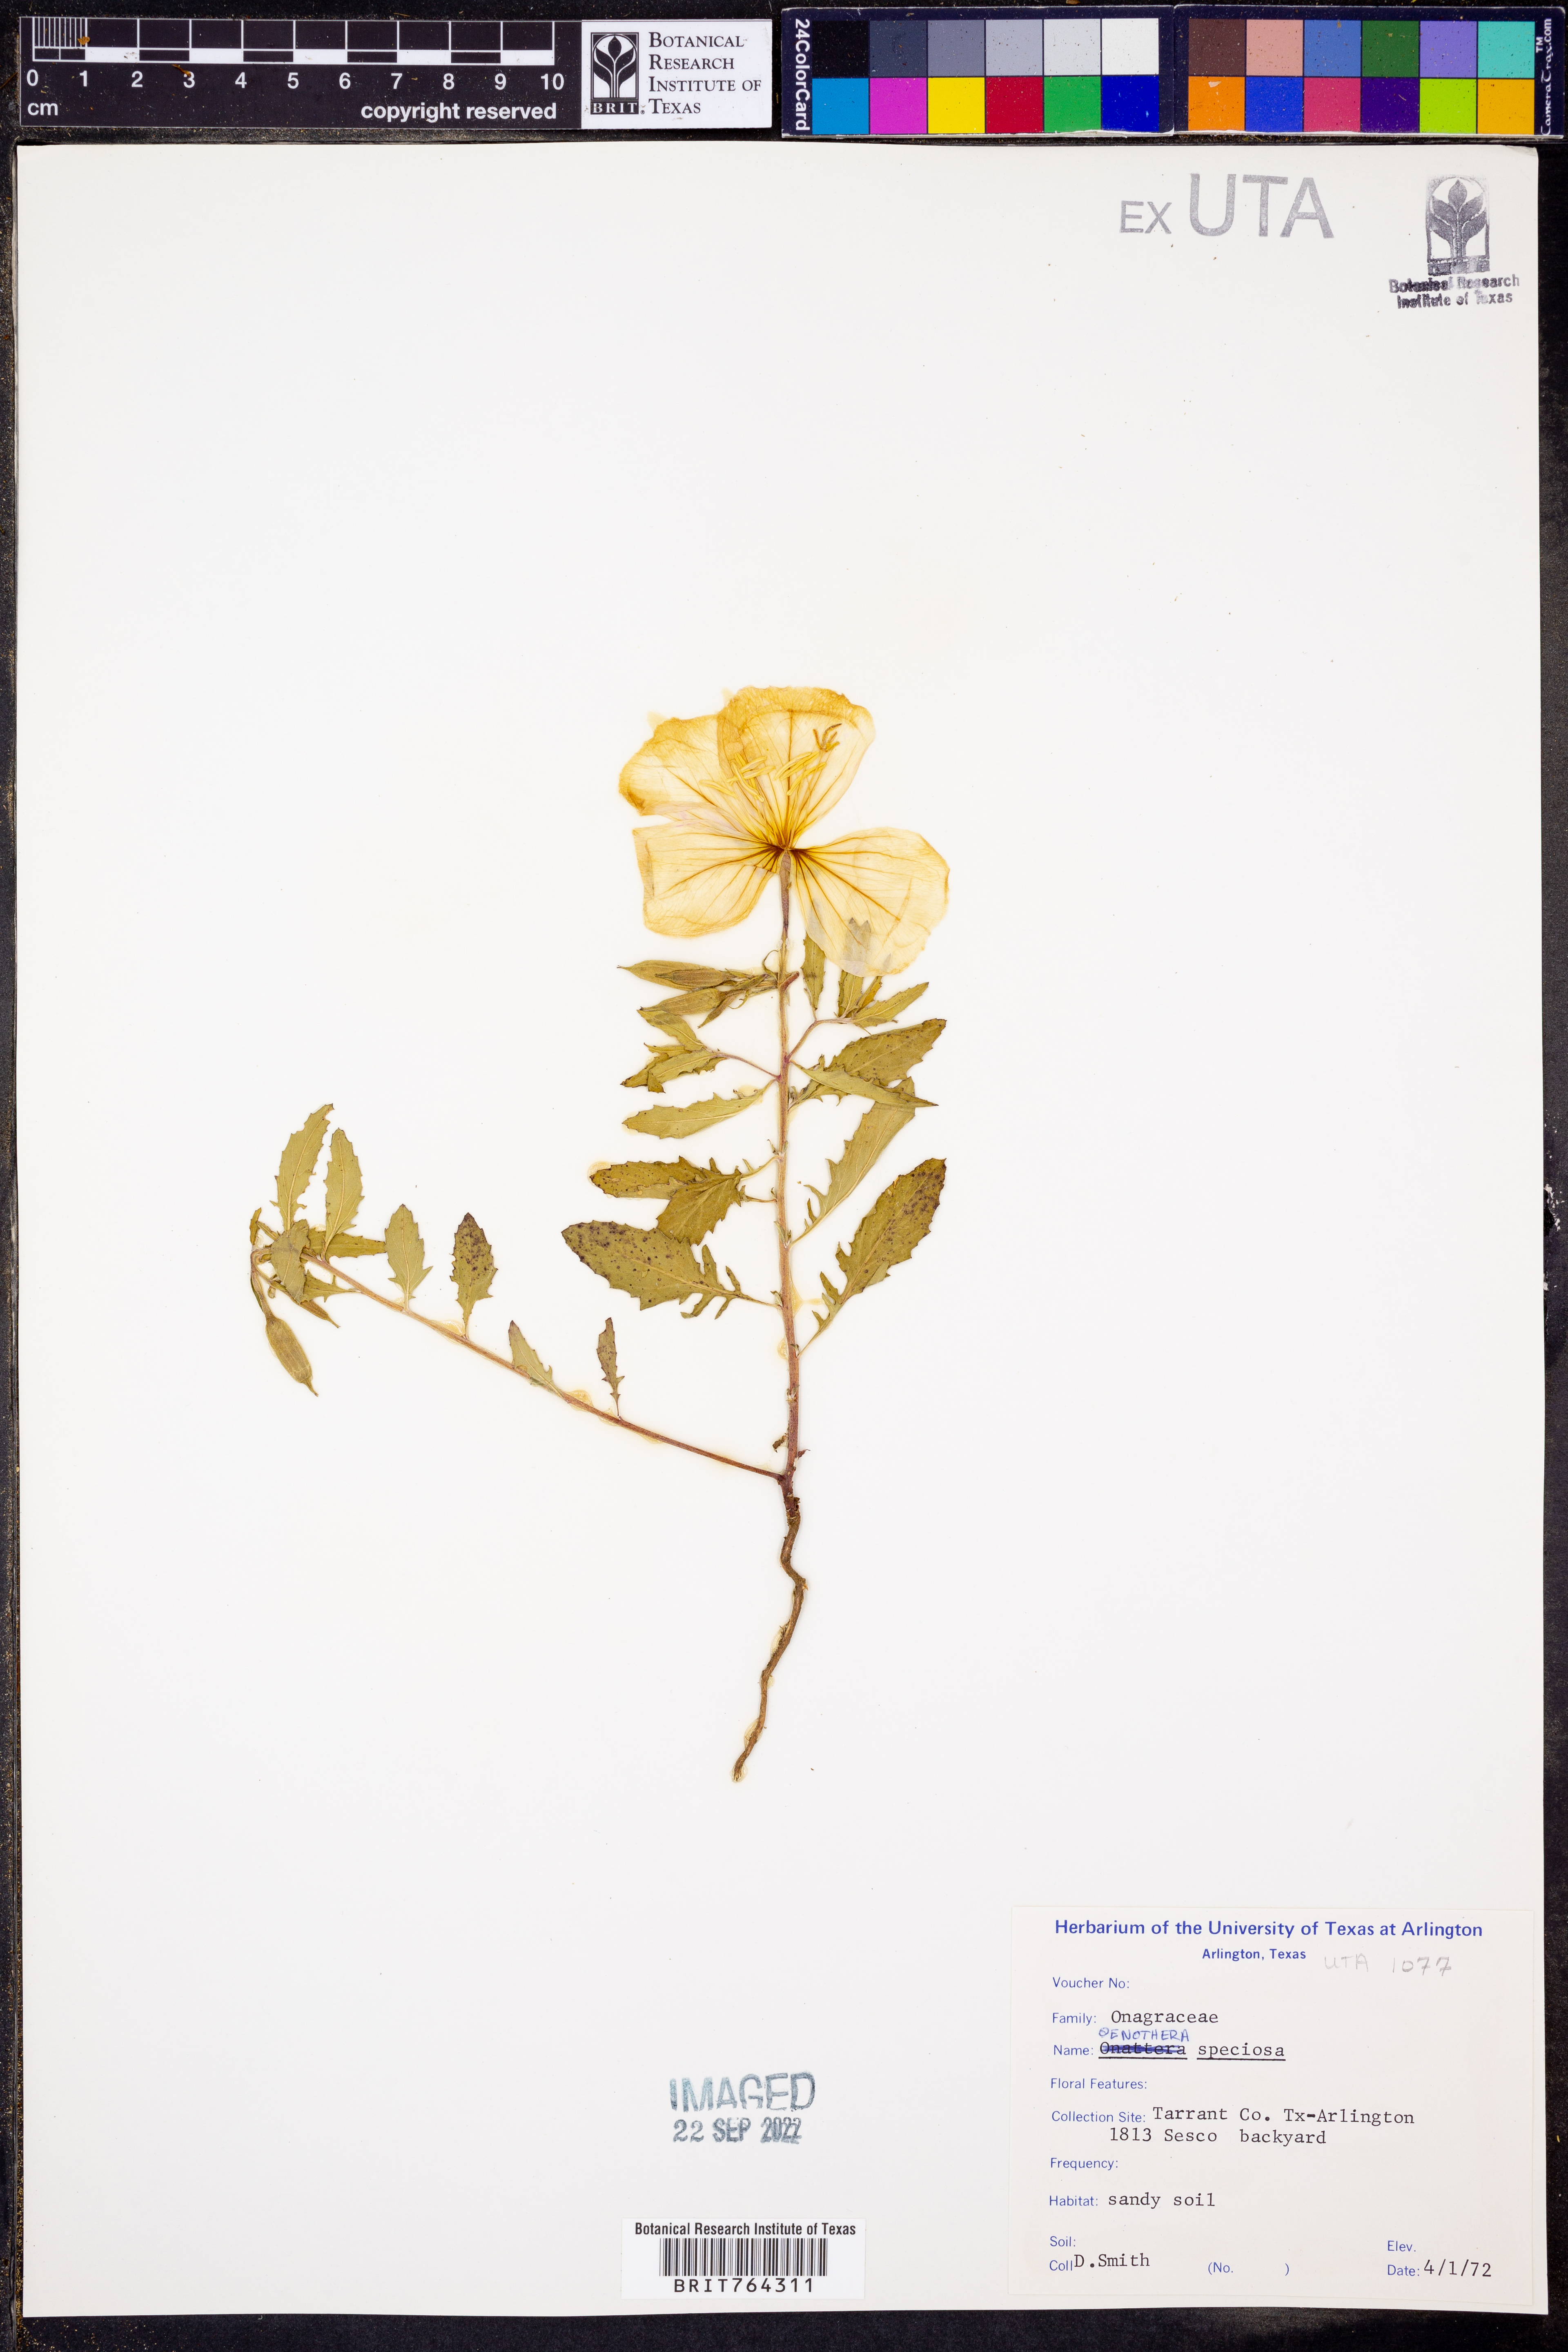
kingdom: Plantae
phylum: Tracheophyta
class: Magnoliopsida
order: Myrtales
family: Onagraceae
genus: Oenothera
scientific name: Oenothera speciosa
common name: White evening-primrose
